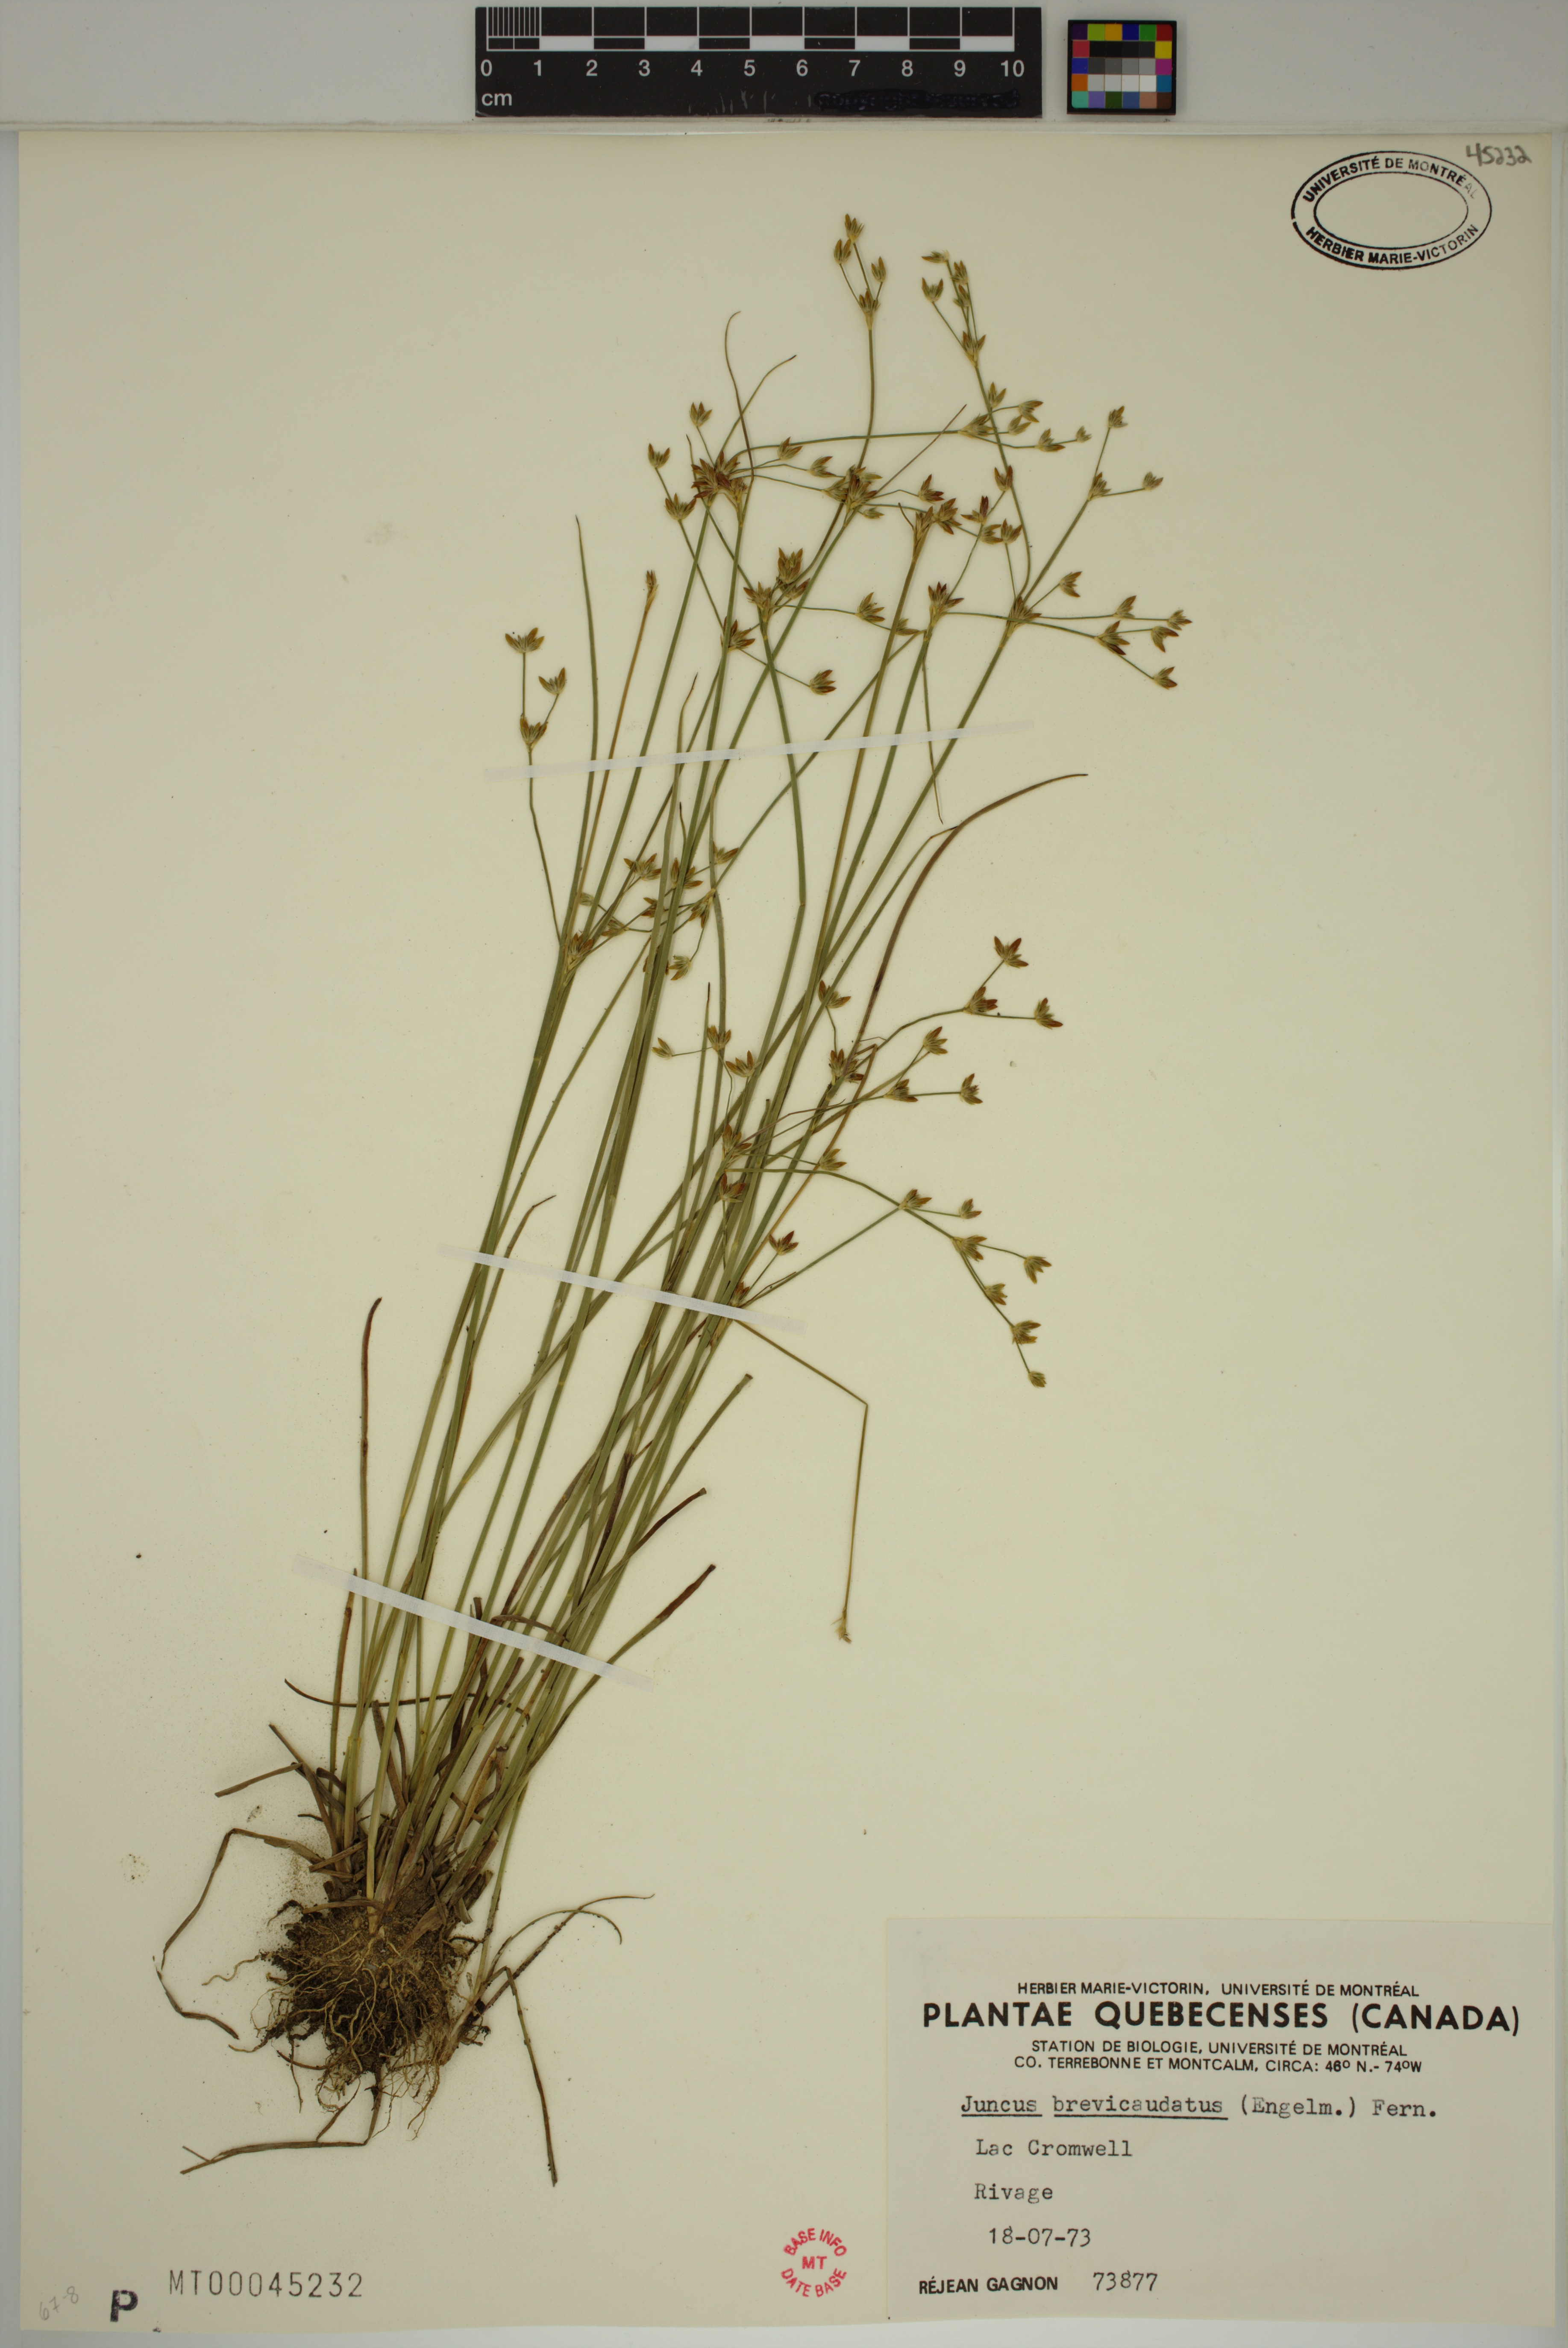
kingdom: Plantae
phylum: Tracheophyta
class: Liliopsida
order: Poales
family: Juncaceae
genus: Juncus
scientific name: Juncus brevicaudatus
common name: Narrow-panicle rush
